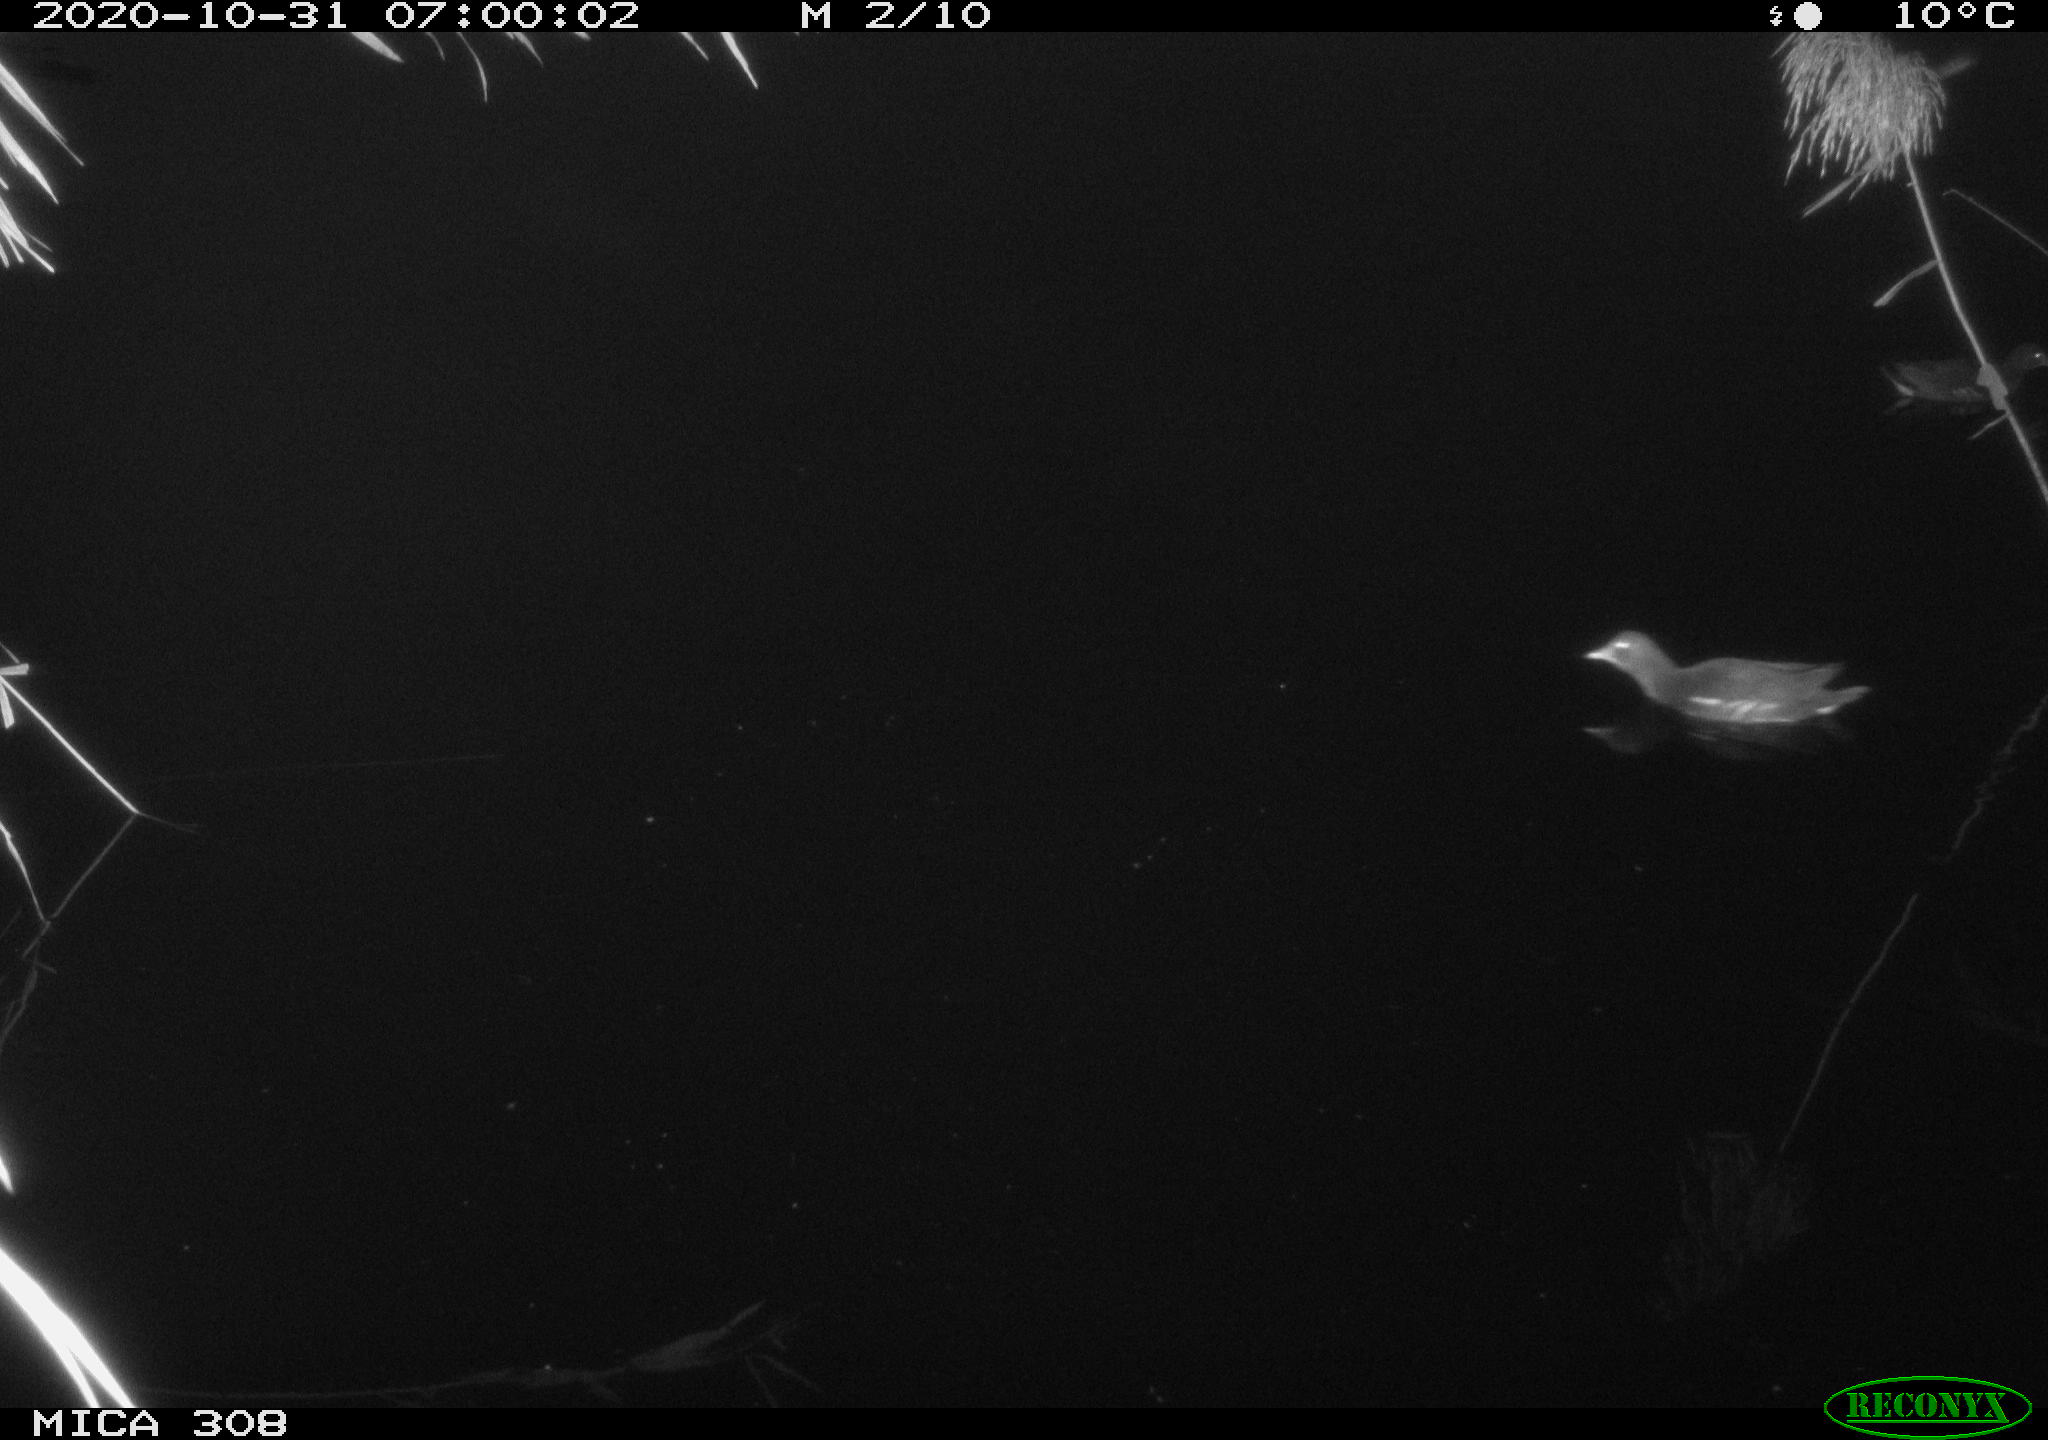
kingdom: Animalia
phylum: Chordata
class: Aves
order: Gruiformes
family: Rallidae
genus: Gallinula
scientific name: Gallinula chloropus
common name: Common moorhen
